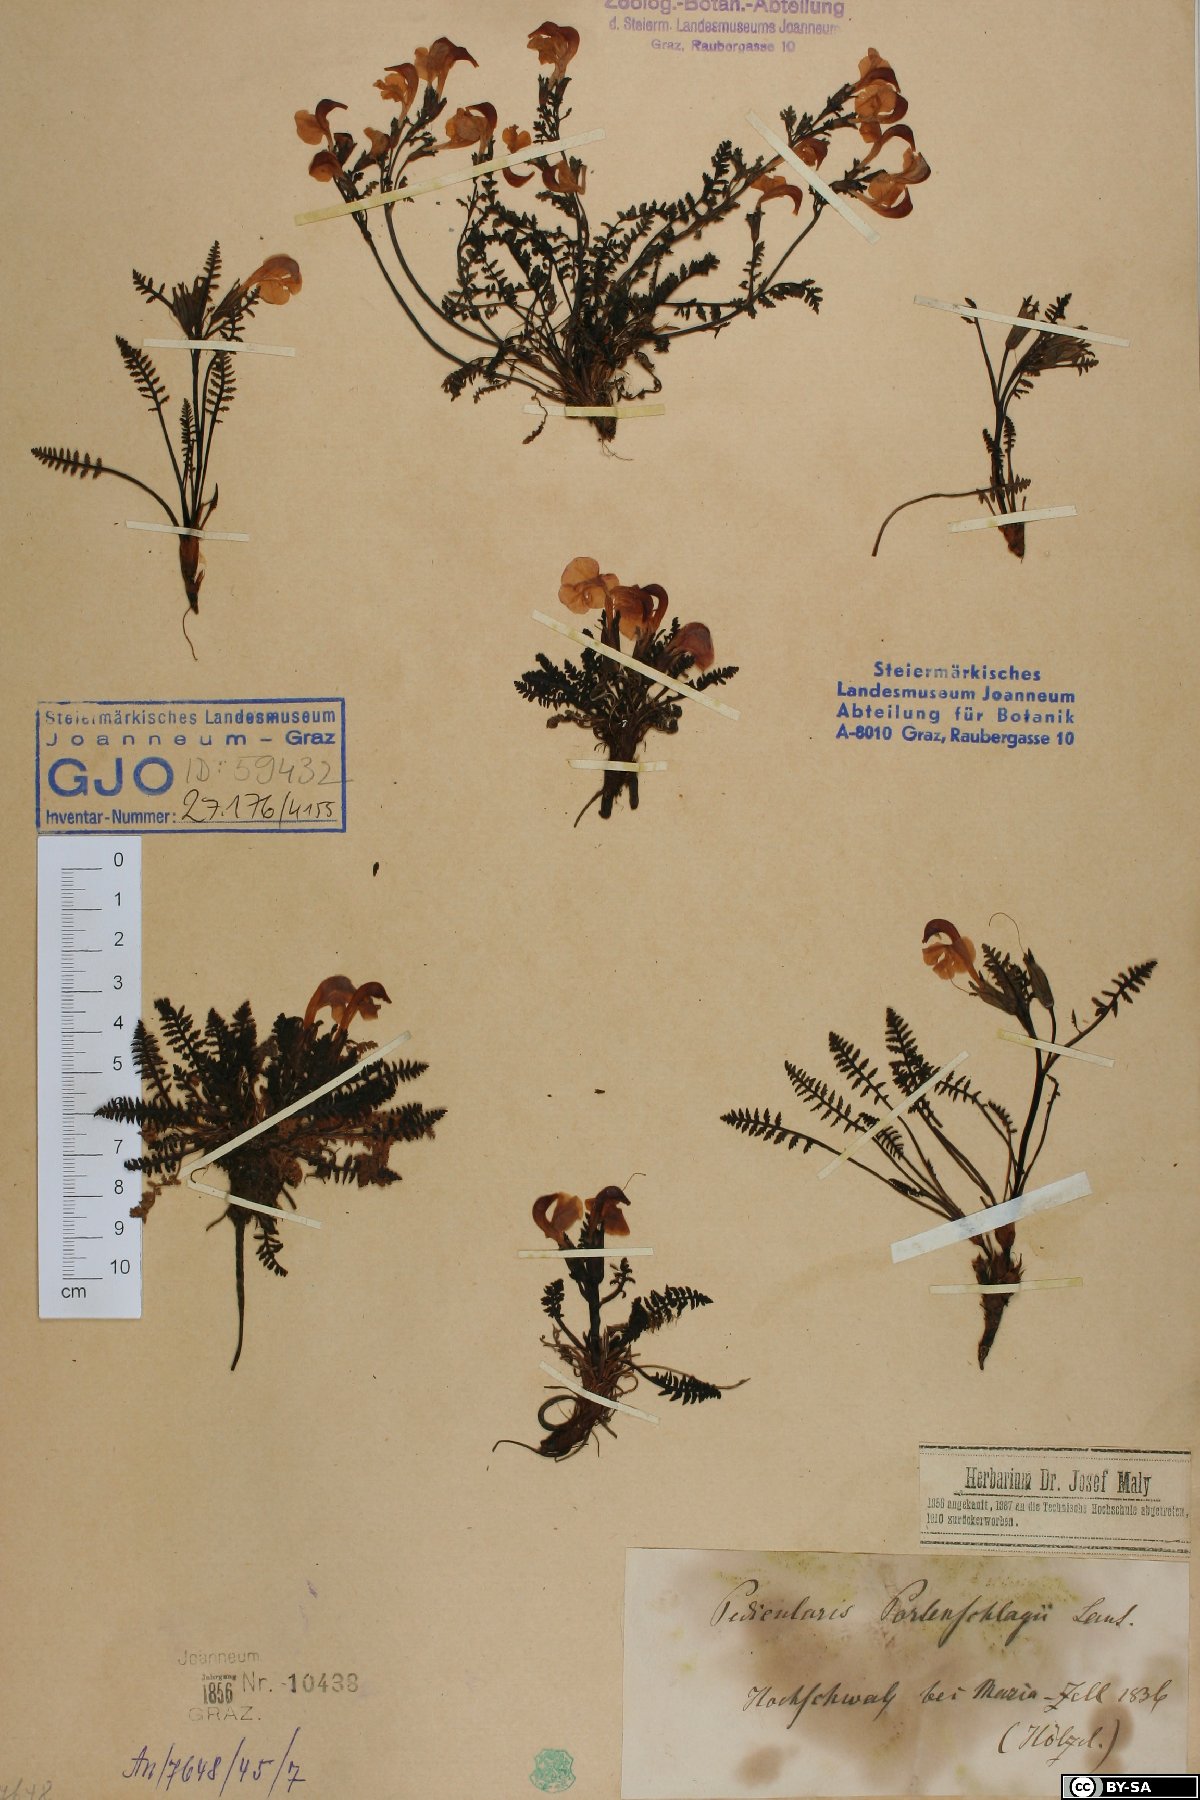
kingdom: Plantae
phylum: Tracheophyta
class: Magnoliopsida
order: Lamiales
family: Orobanchaceae
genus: Pedicularis
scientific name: Pedicularis portenschlagii
